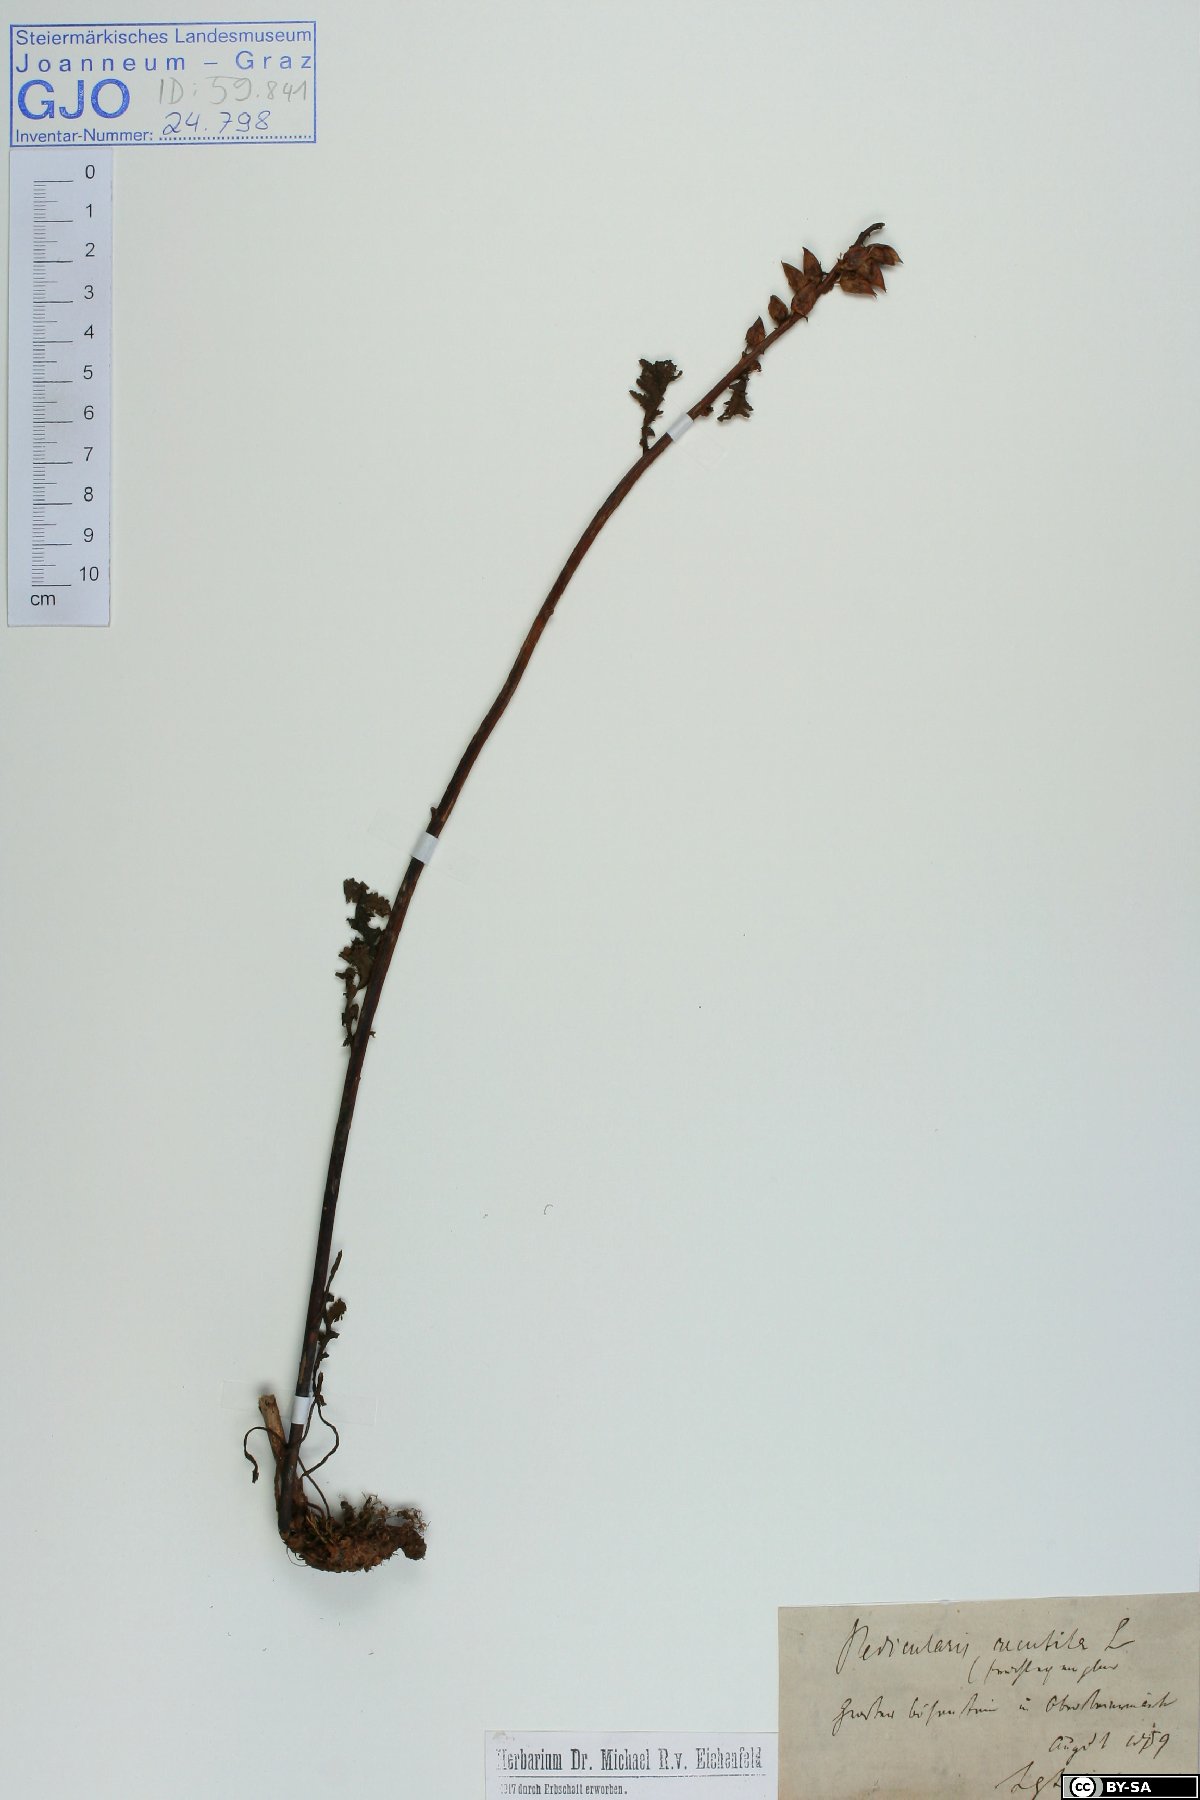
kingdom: Plantae
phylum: Tracheophyta
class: Magnoliopsida
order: Lamiales
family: Orobanchaceae
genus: Pedicularis
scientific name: Pedicularis recutita
